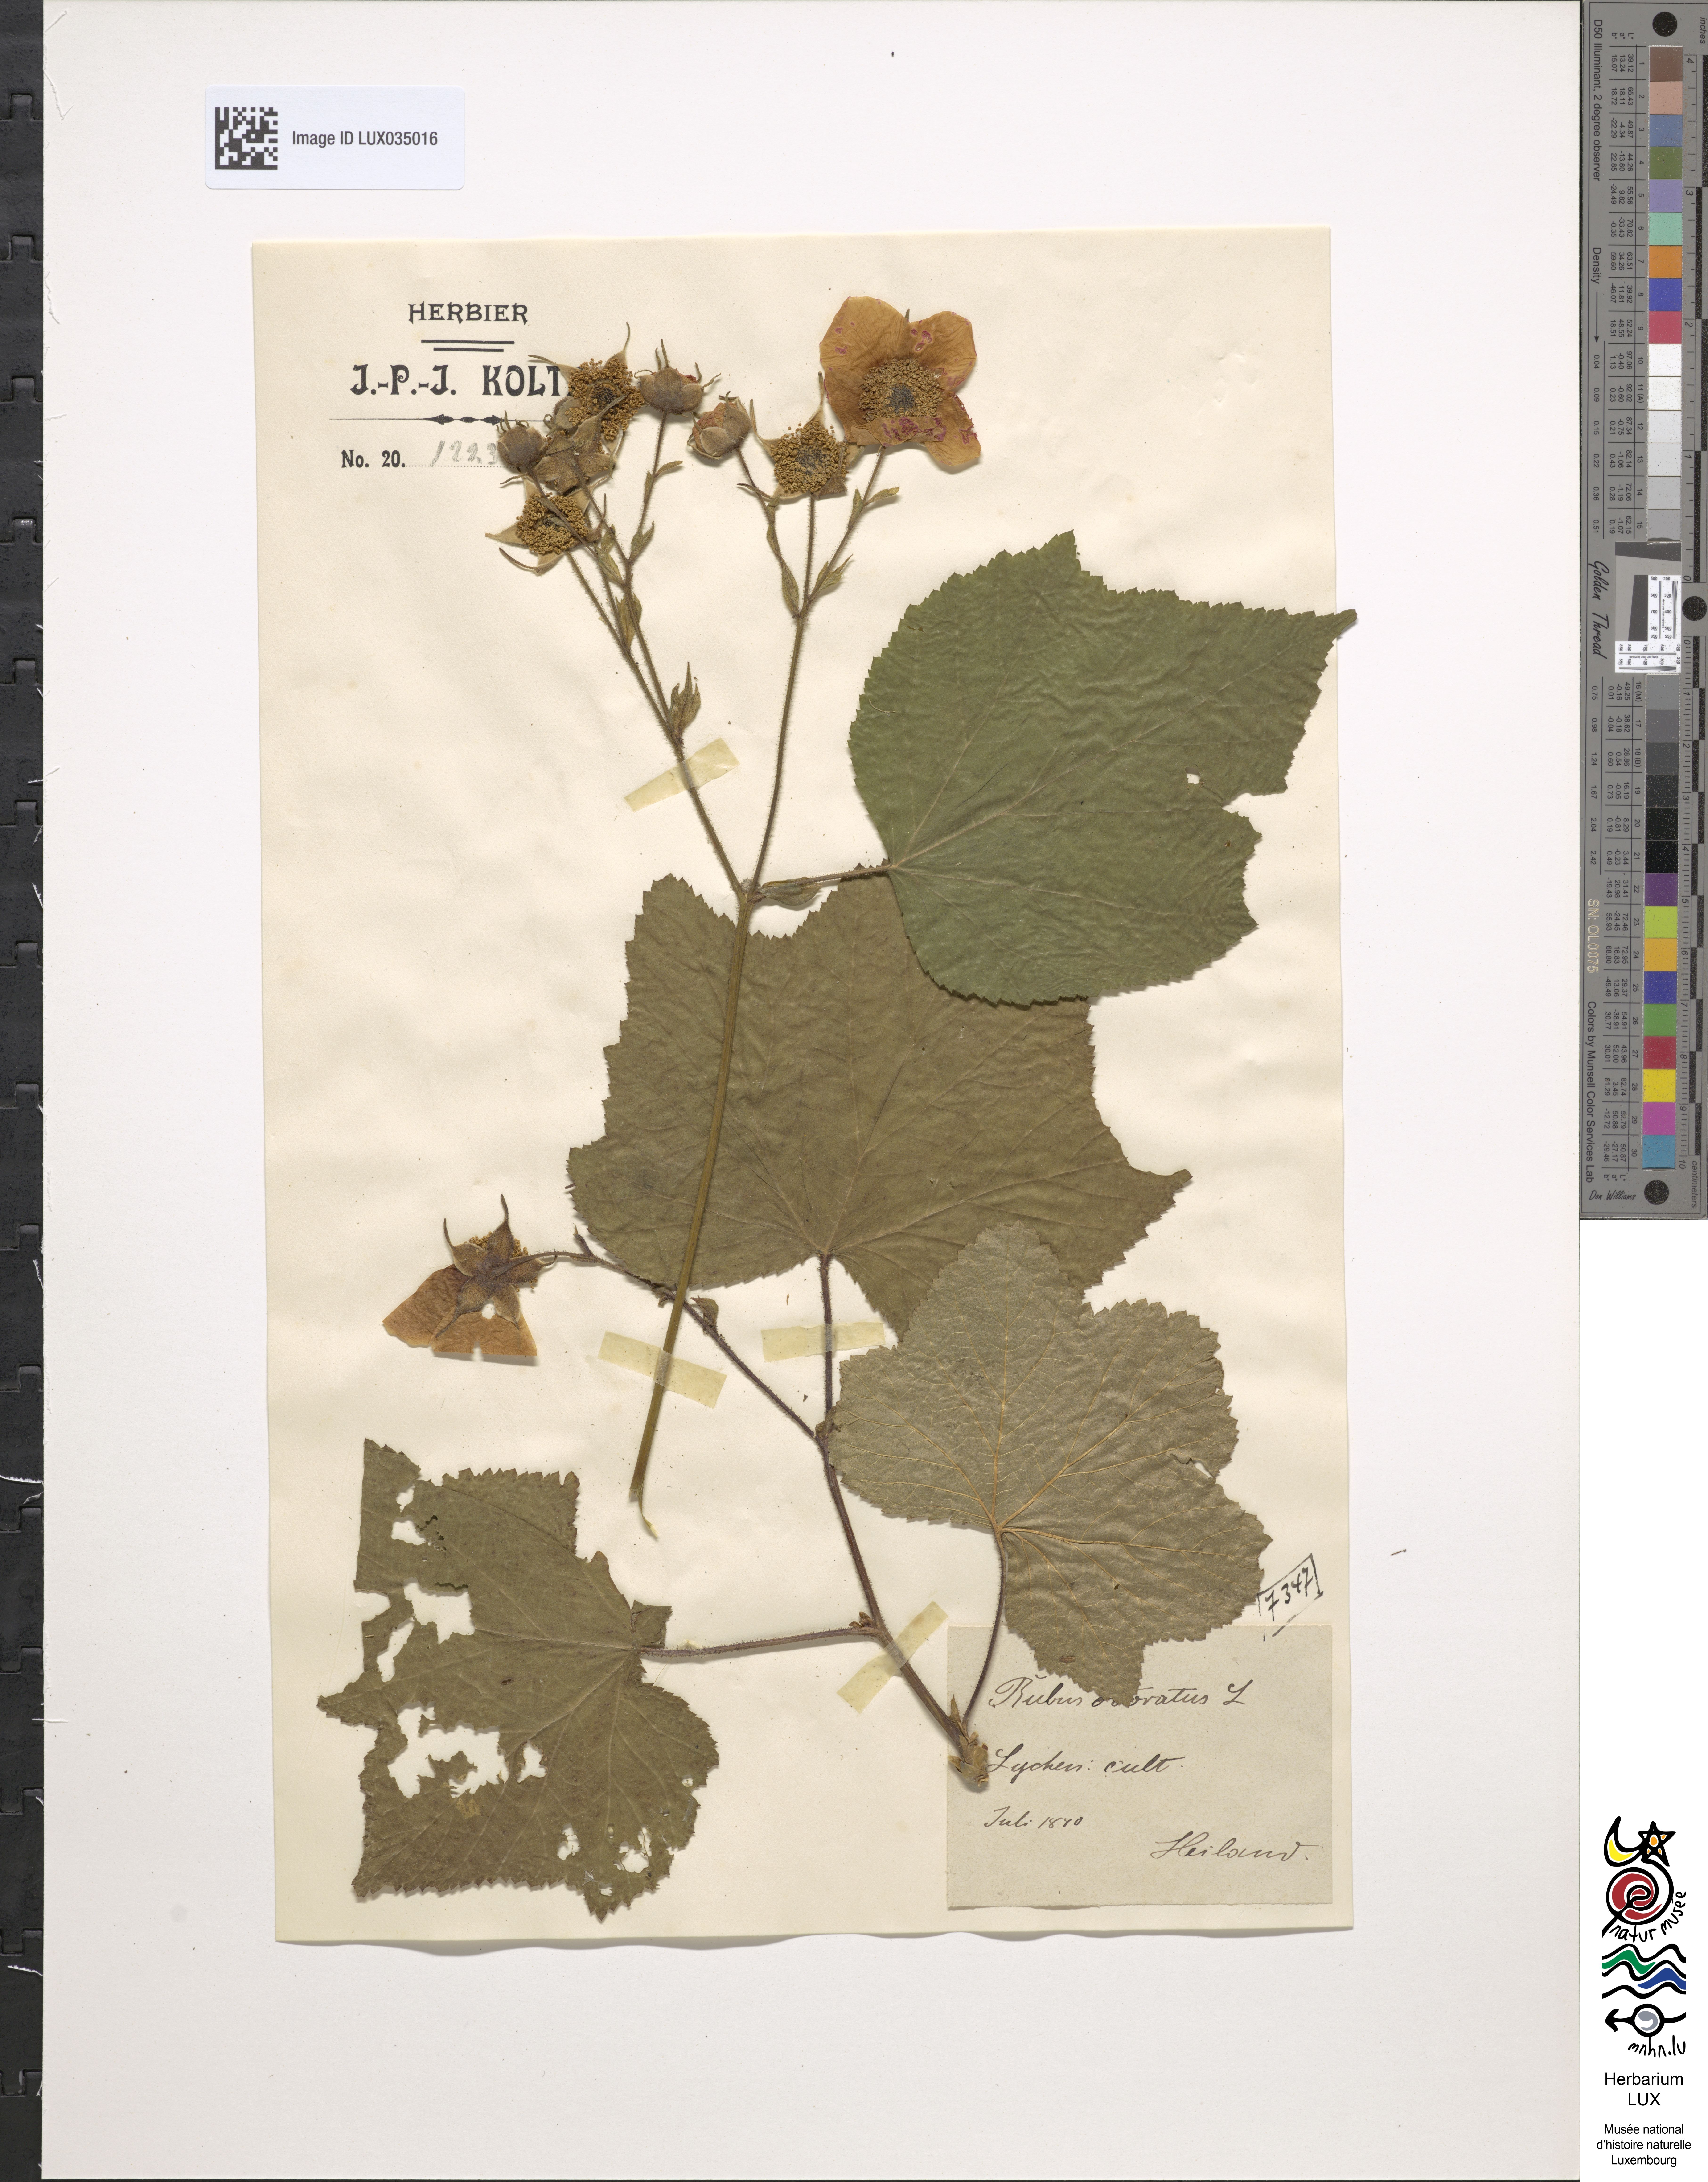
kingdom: Plantae
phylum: Tracheophyta
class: Magnoliopsida
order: Rosales
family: Rosaceae
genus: Rubus
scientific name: Rubus odoratus
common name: Purple-flowered raspberry
